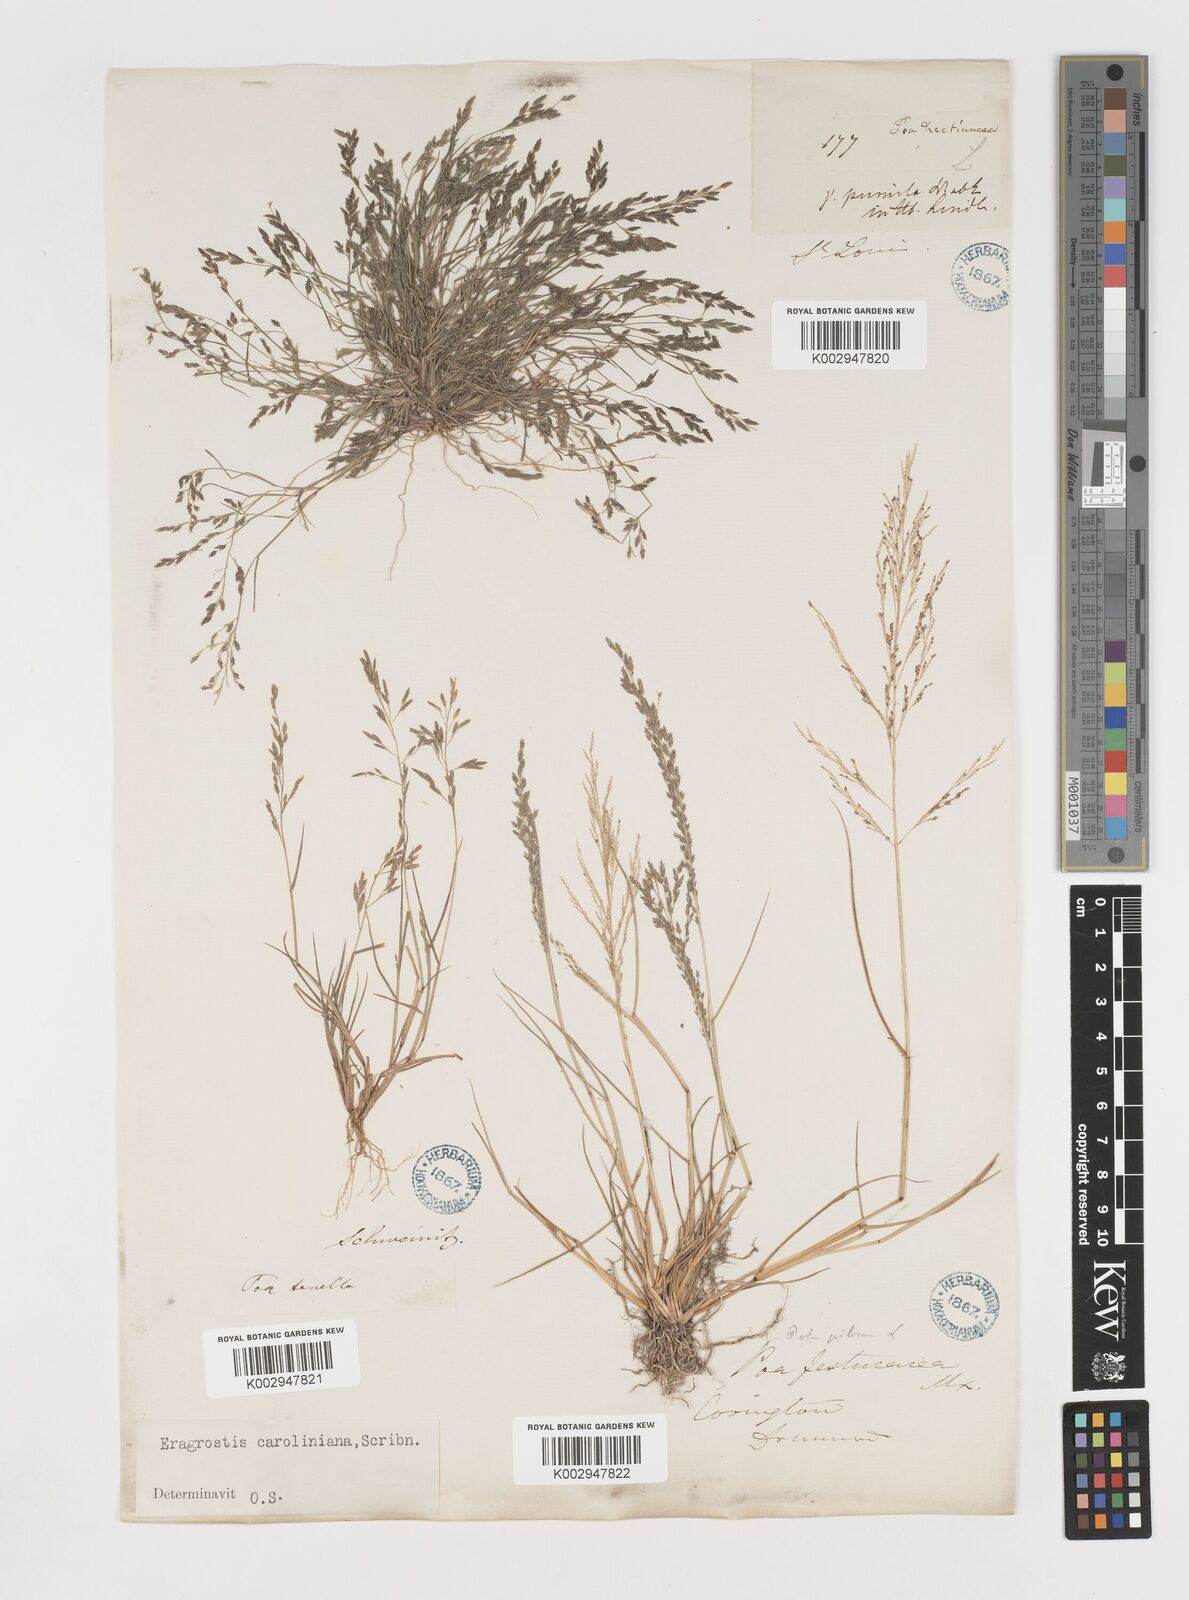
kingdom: Plantae
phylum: Tracheophyta
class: Liliopsida
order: Poales
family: Poaceae
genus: Eragrostis
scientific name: Eragrostis pectinacea
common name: Tufted lovegrass
